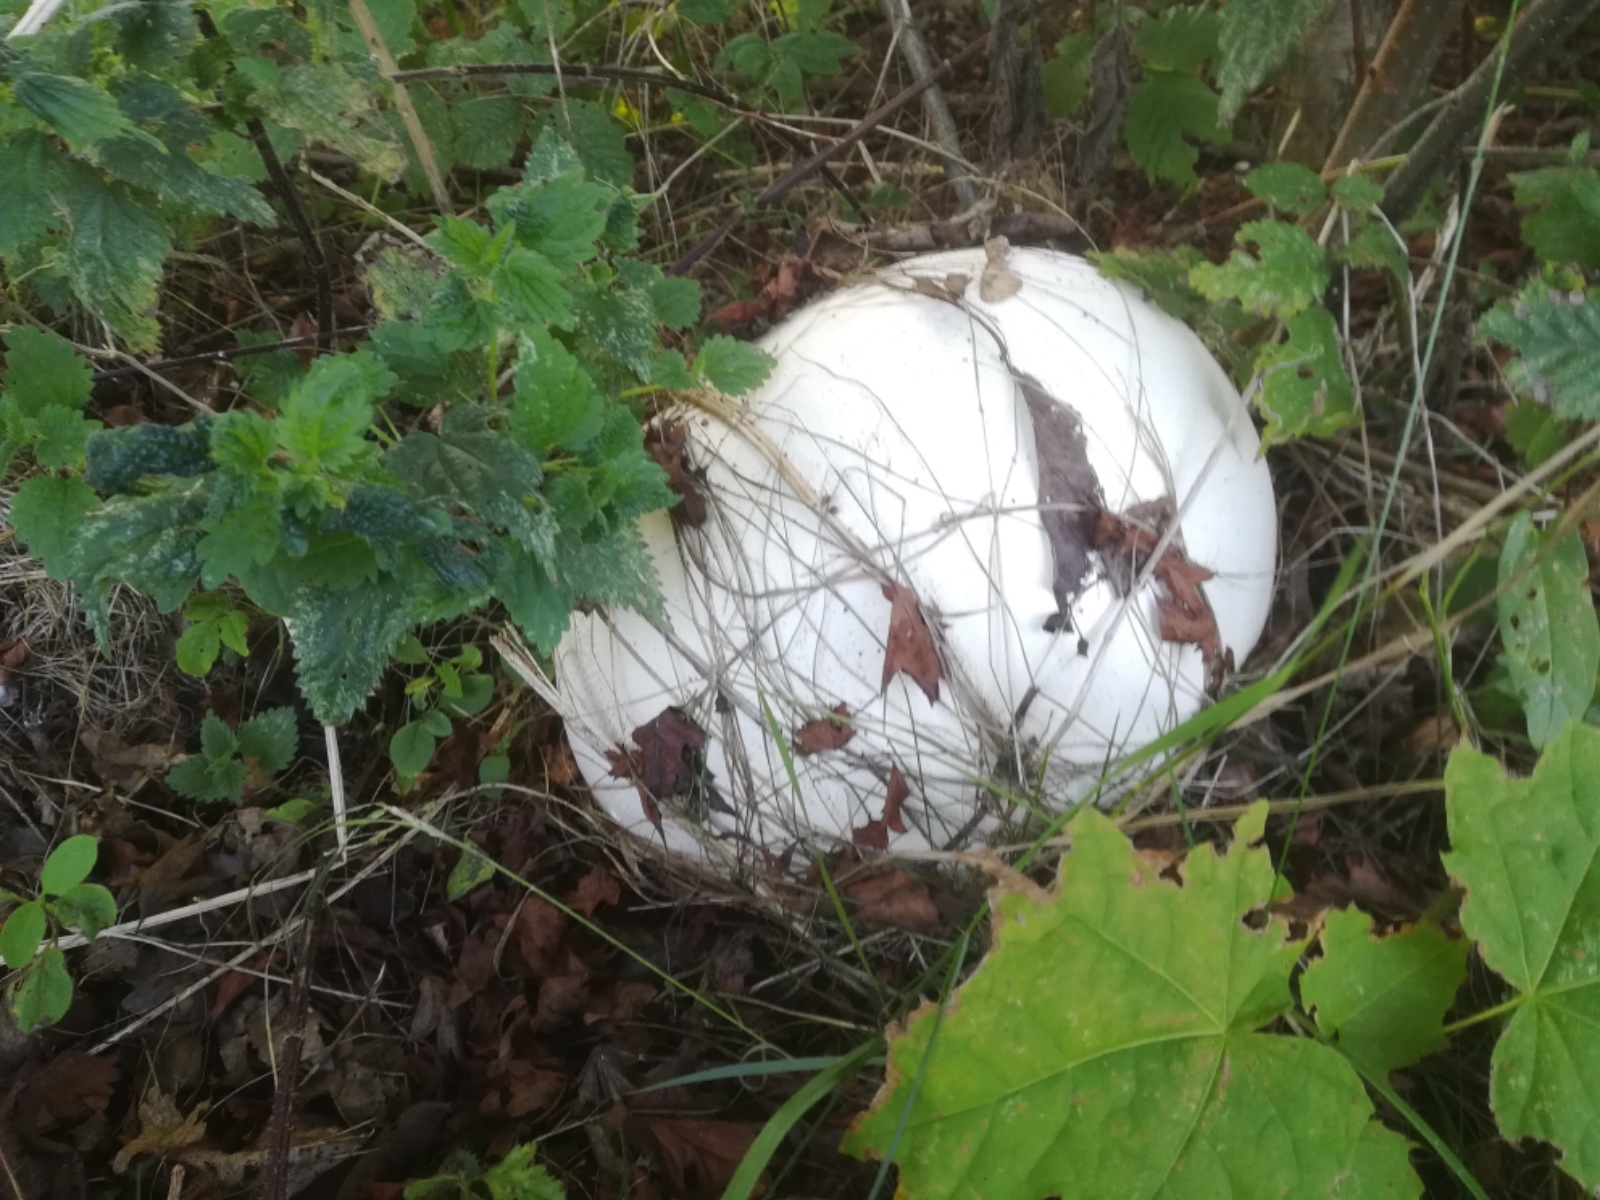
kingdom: Fungi
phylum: Basidiomycota
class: Agaricomycetes
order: Agaricales
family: Lycoperdaceae
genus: Calvatia
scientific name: Calvatia gigantea
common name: kæmpestøvbold
